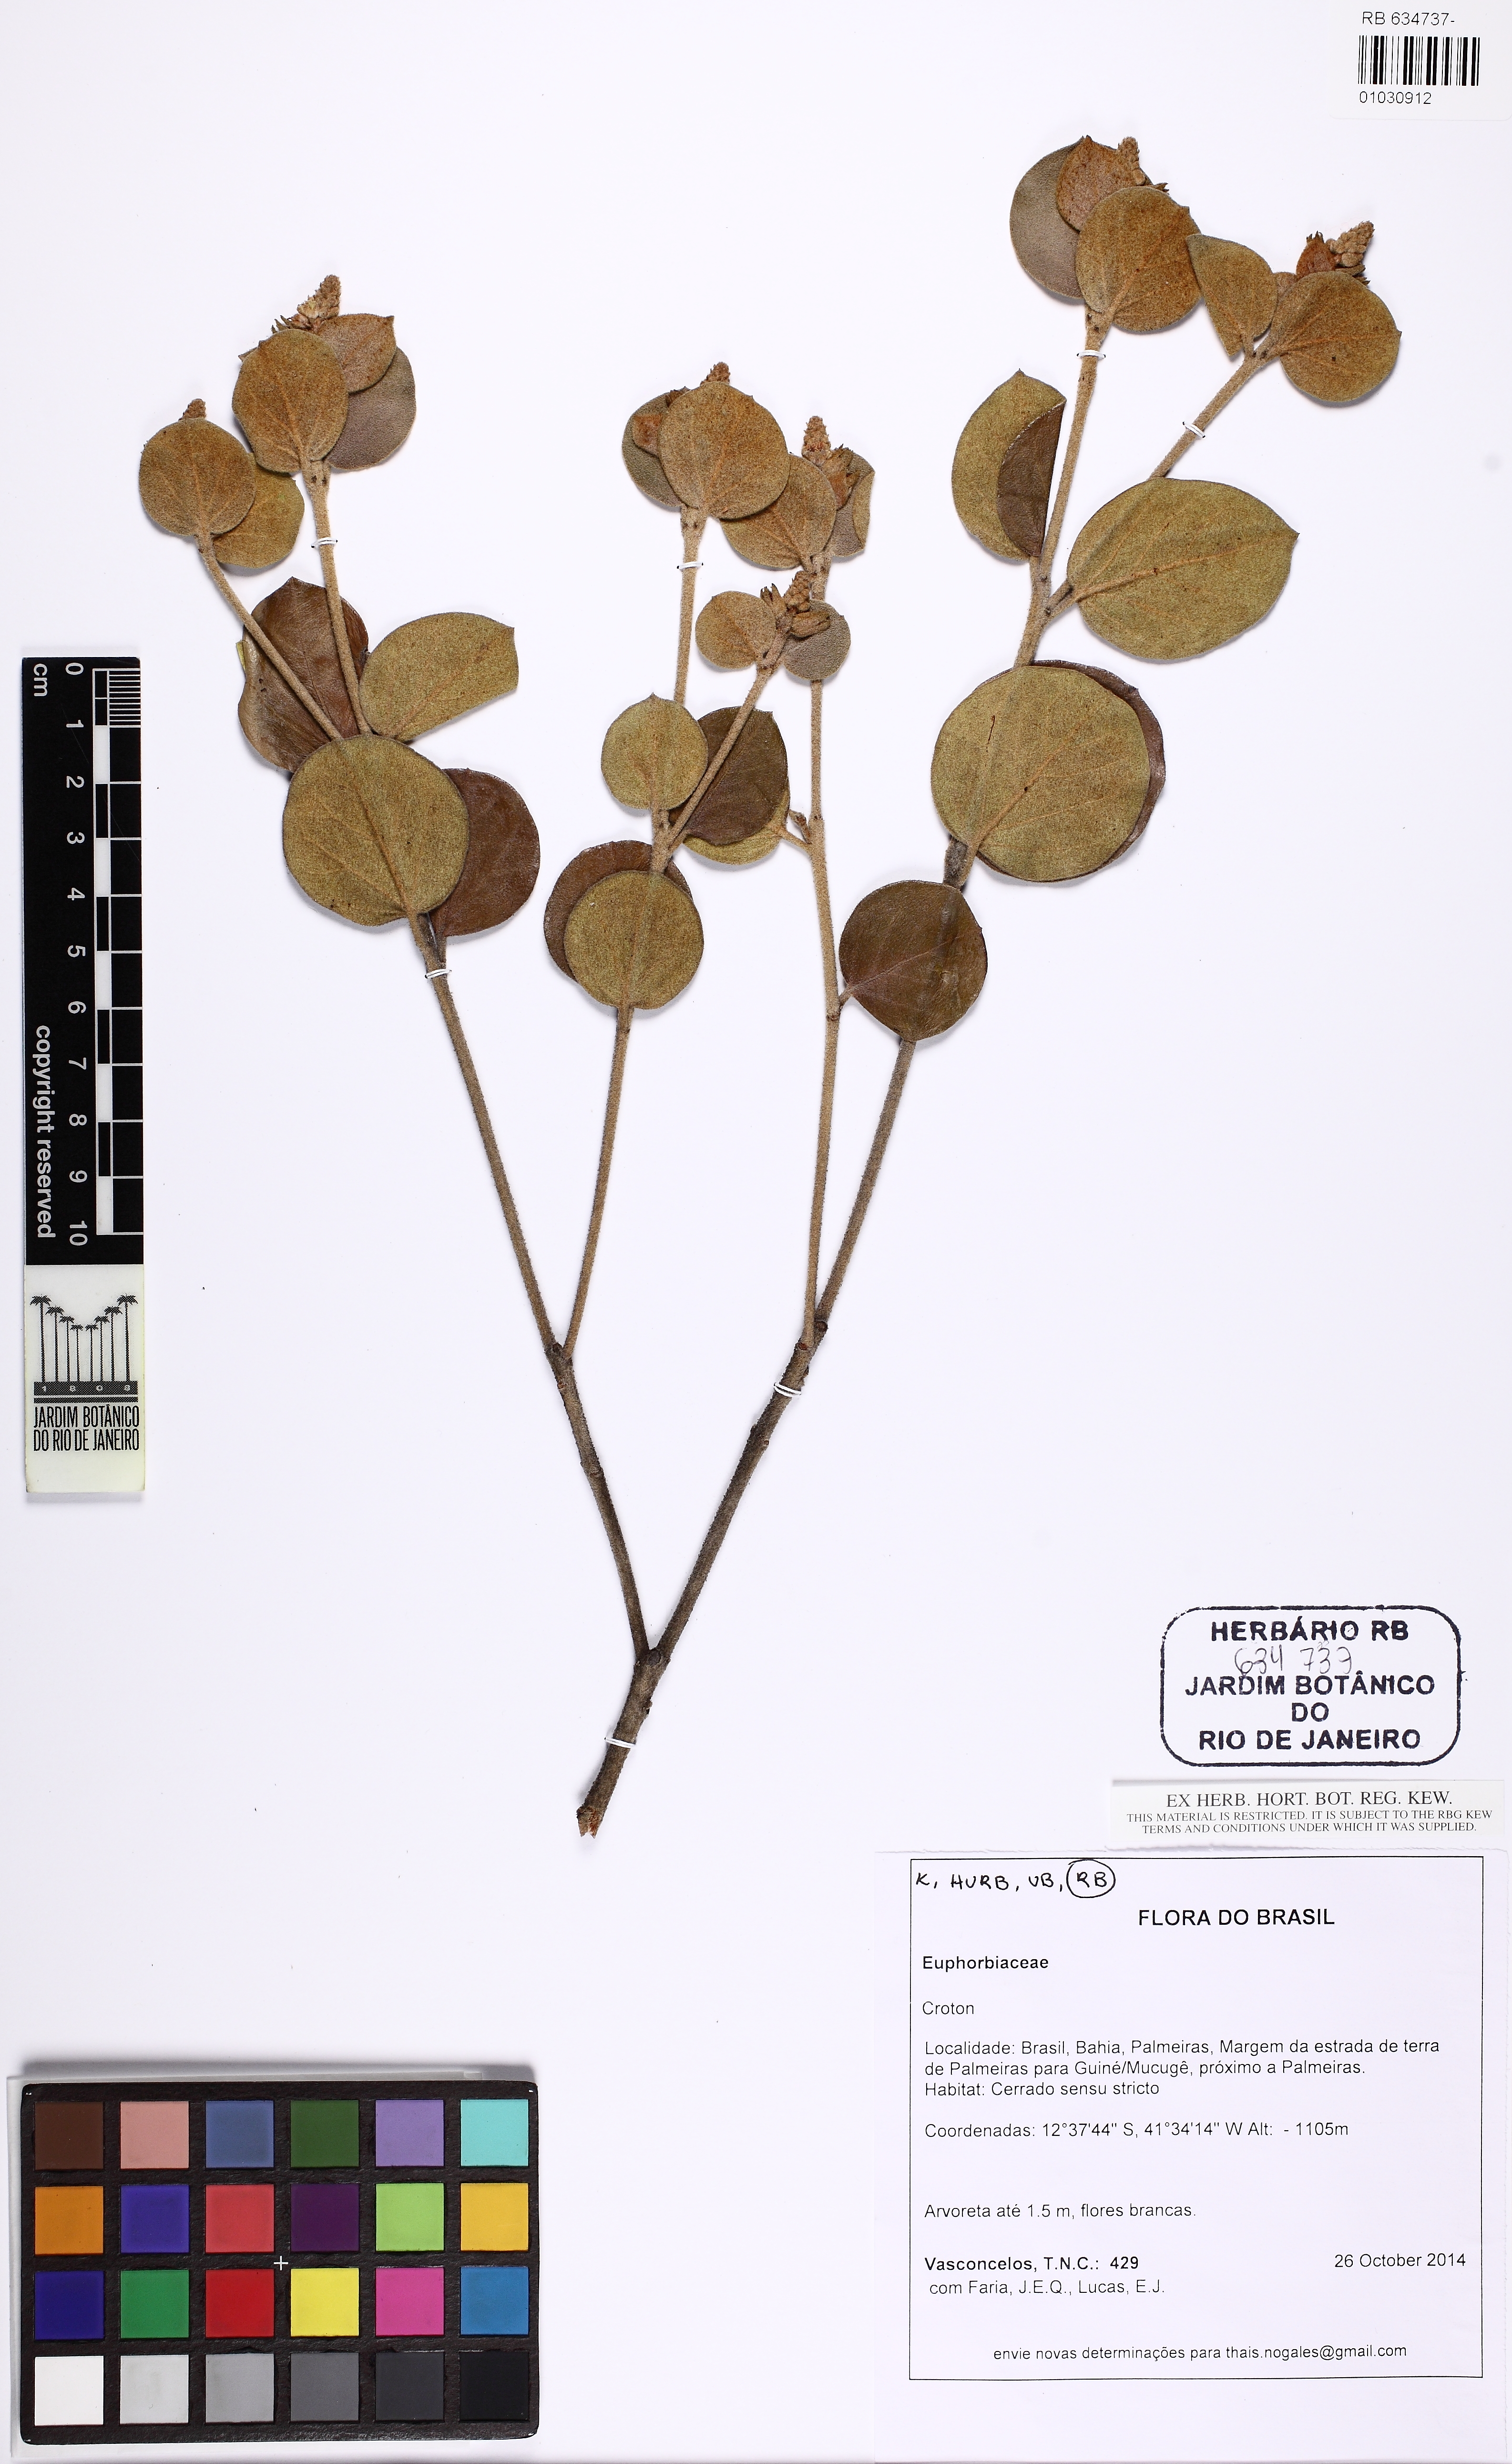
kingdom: Plantae
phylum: Tracheophyta
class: Magnoliopsida
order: Malpighiales
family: Euphorbiaceae
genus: Croton
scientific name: Croton velutinus
